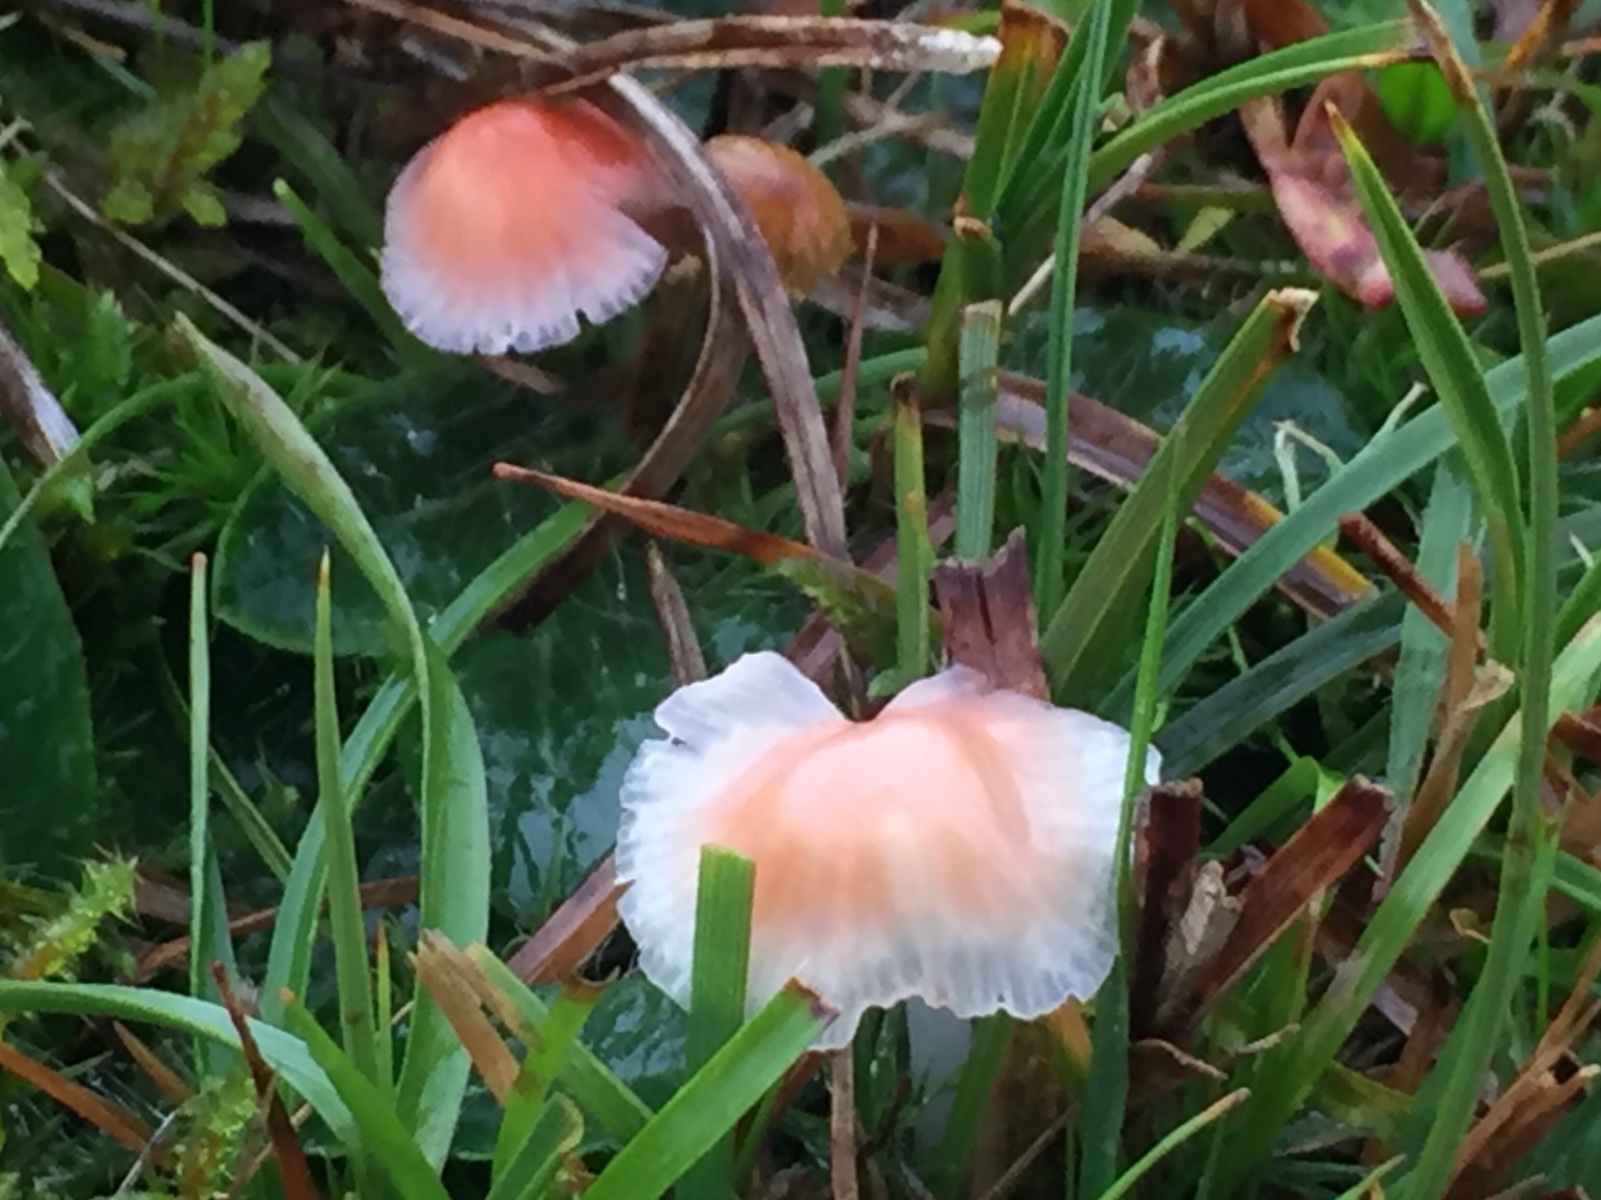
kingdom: Fungi
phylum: Basidiomycota
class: Agaricomycetes
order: Agaricales
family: Mycenaceae
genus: Atheniella
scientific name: Atheniella adonis
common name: rønnerød huesvamp
